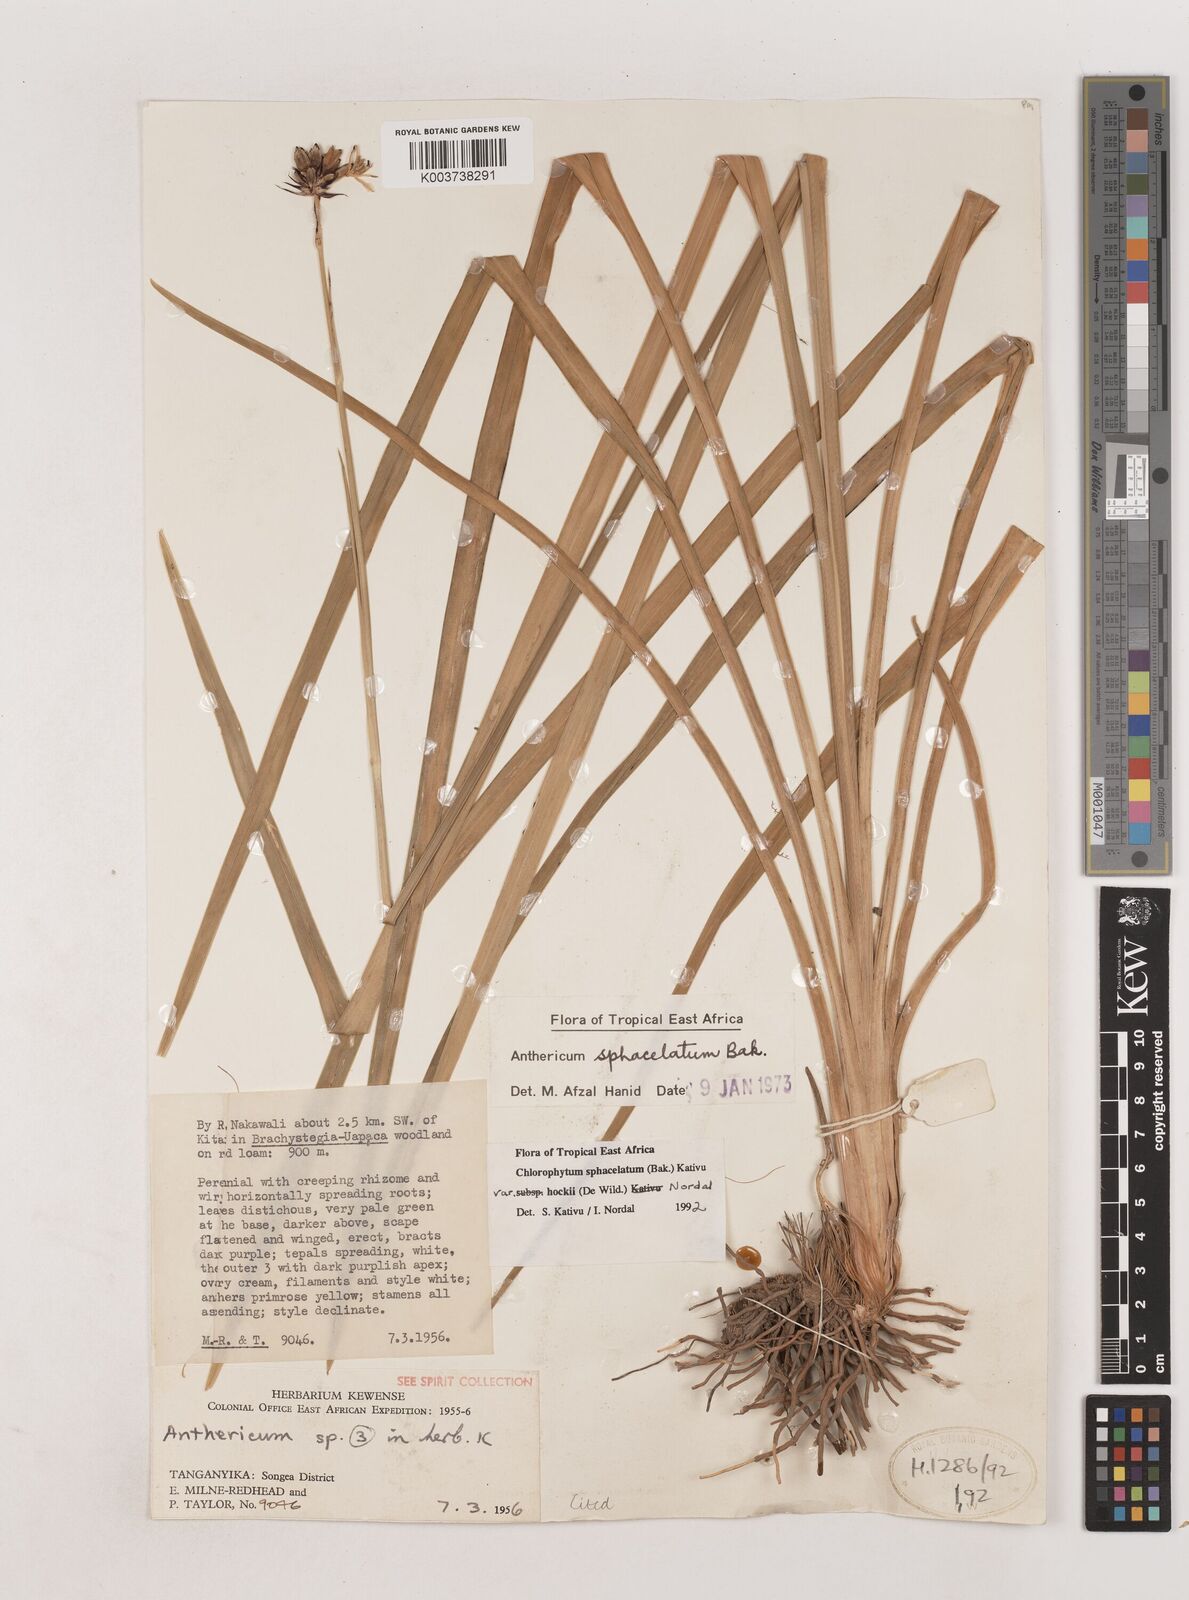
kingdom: Plantae
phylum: Tracheophyta
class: Liliopsida
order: Asparagales
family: Asparagaceae
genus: Chlorophytum
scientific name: Chlorophytum sphacelatum
